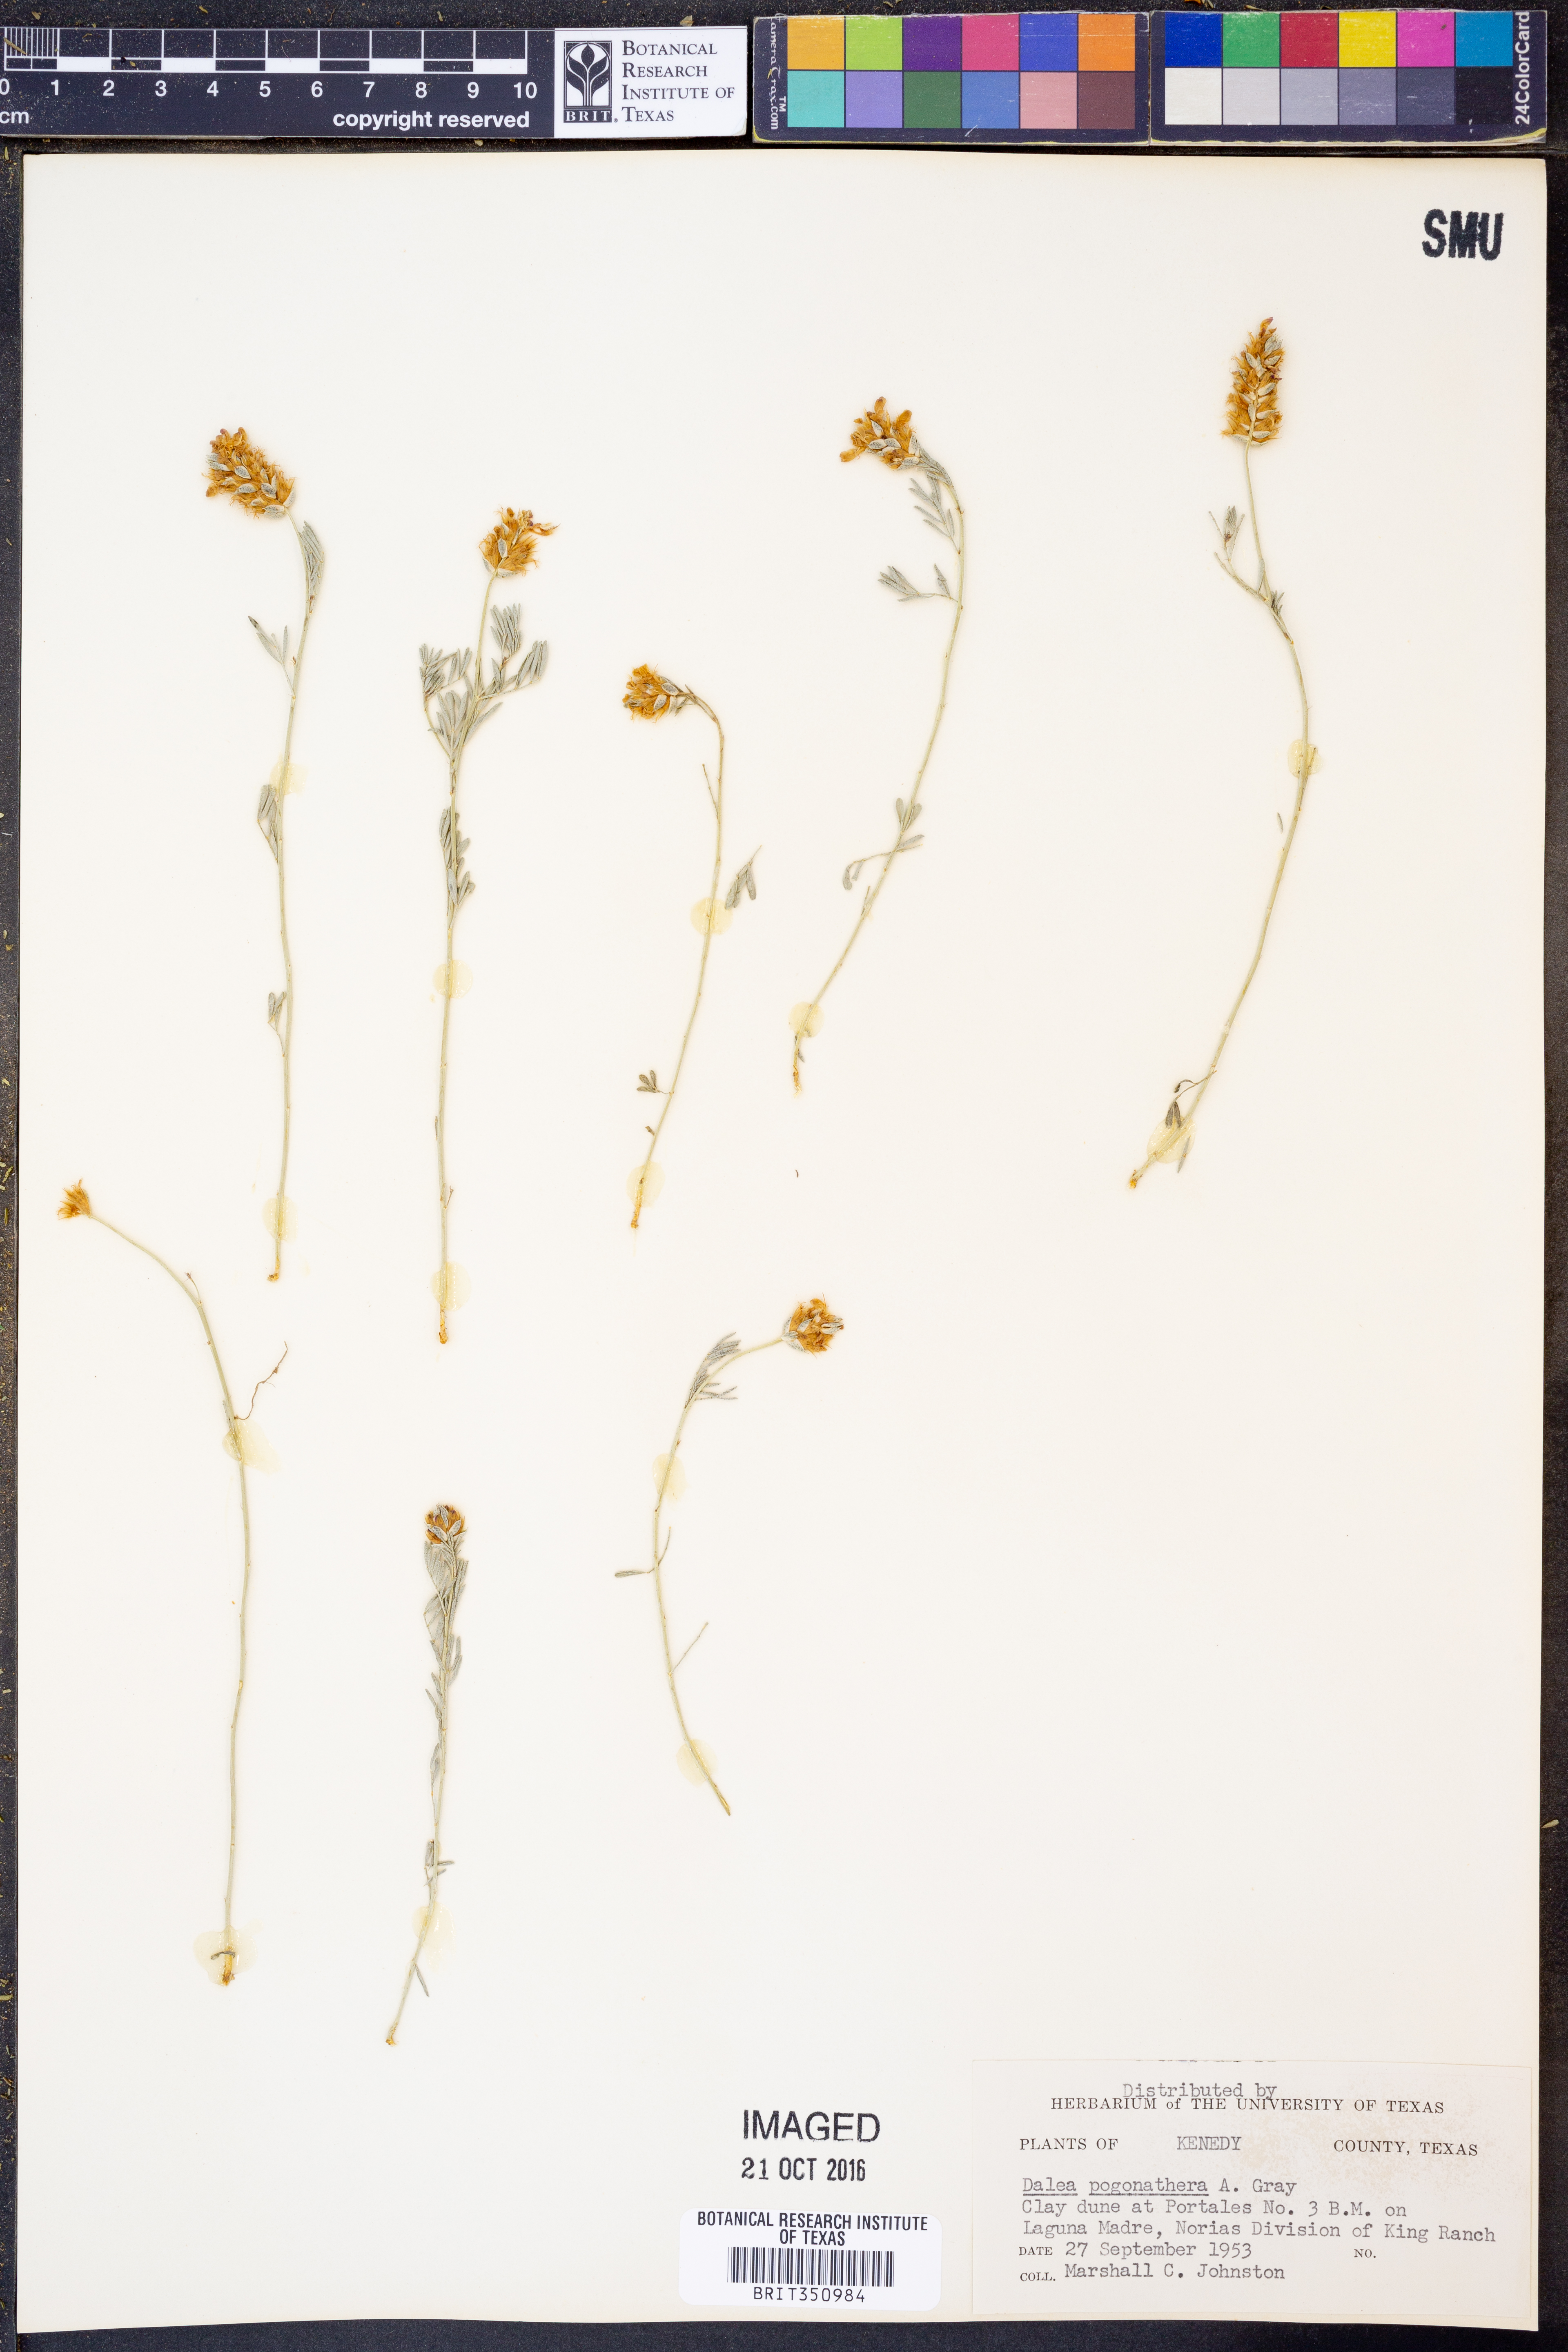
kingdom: Plantae
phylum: Tracheophyta
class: Magnoliopsida
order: Fabales
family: Fabaceae
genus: Dalea
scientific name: Dalea pogonathera
